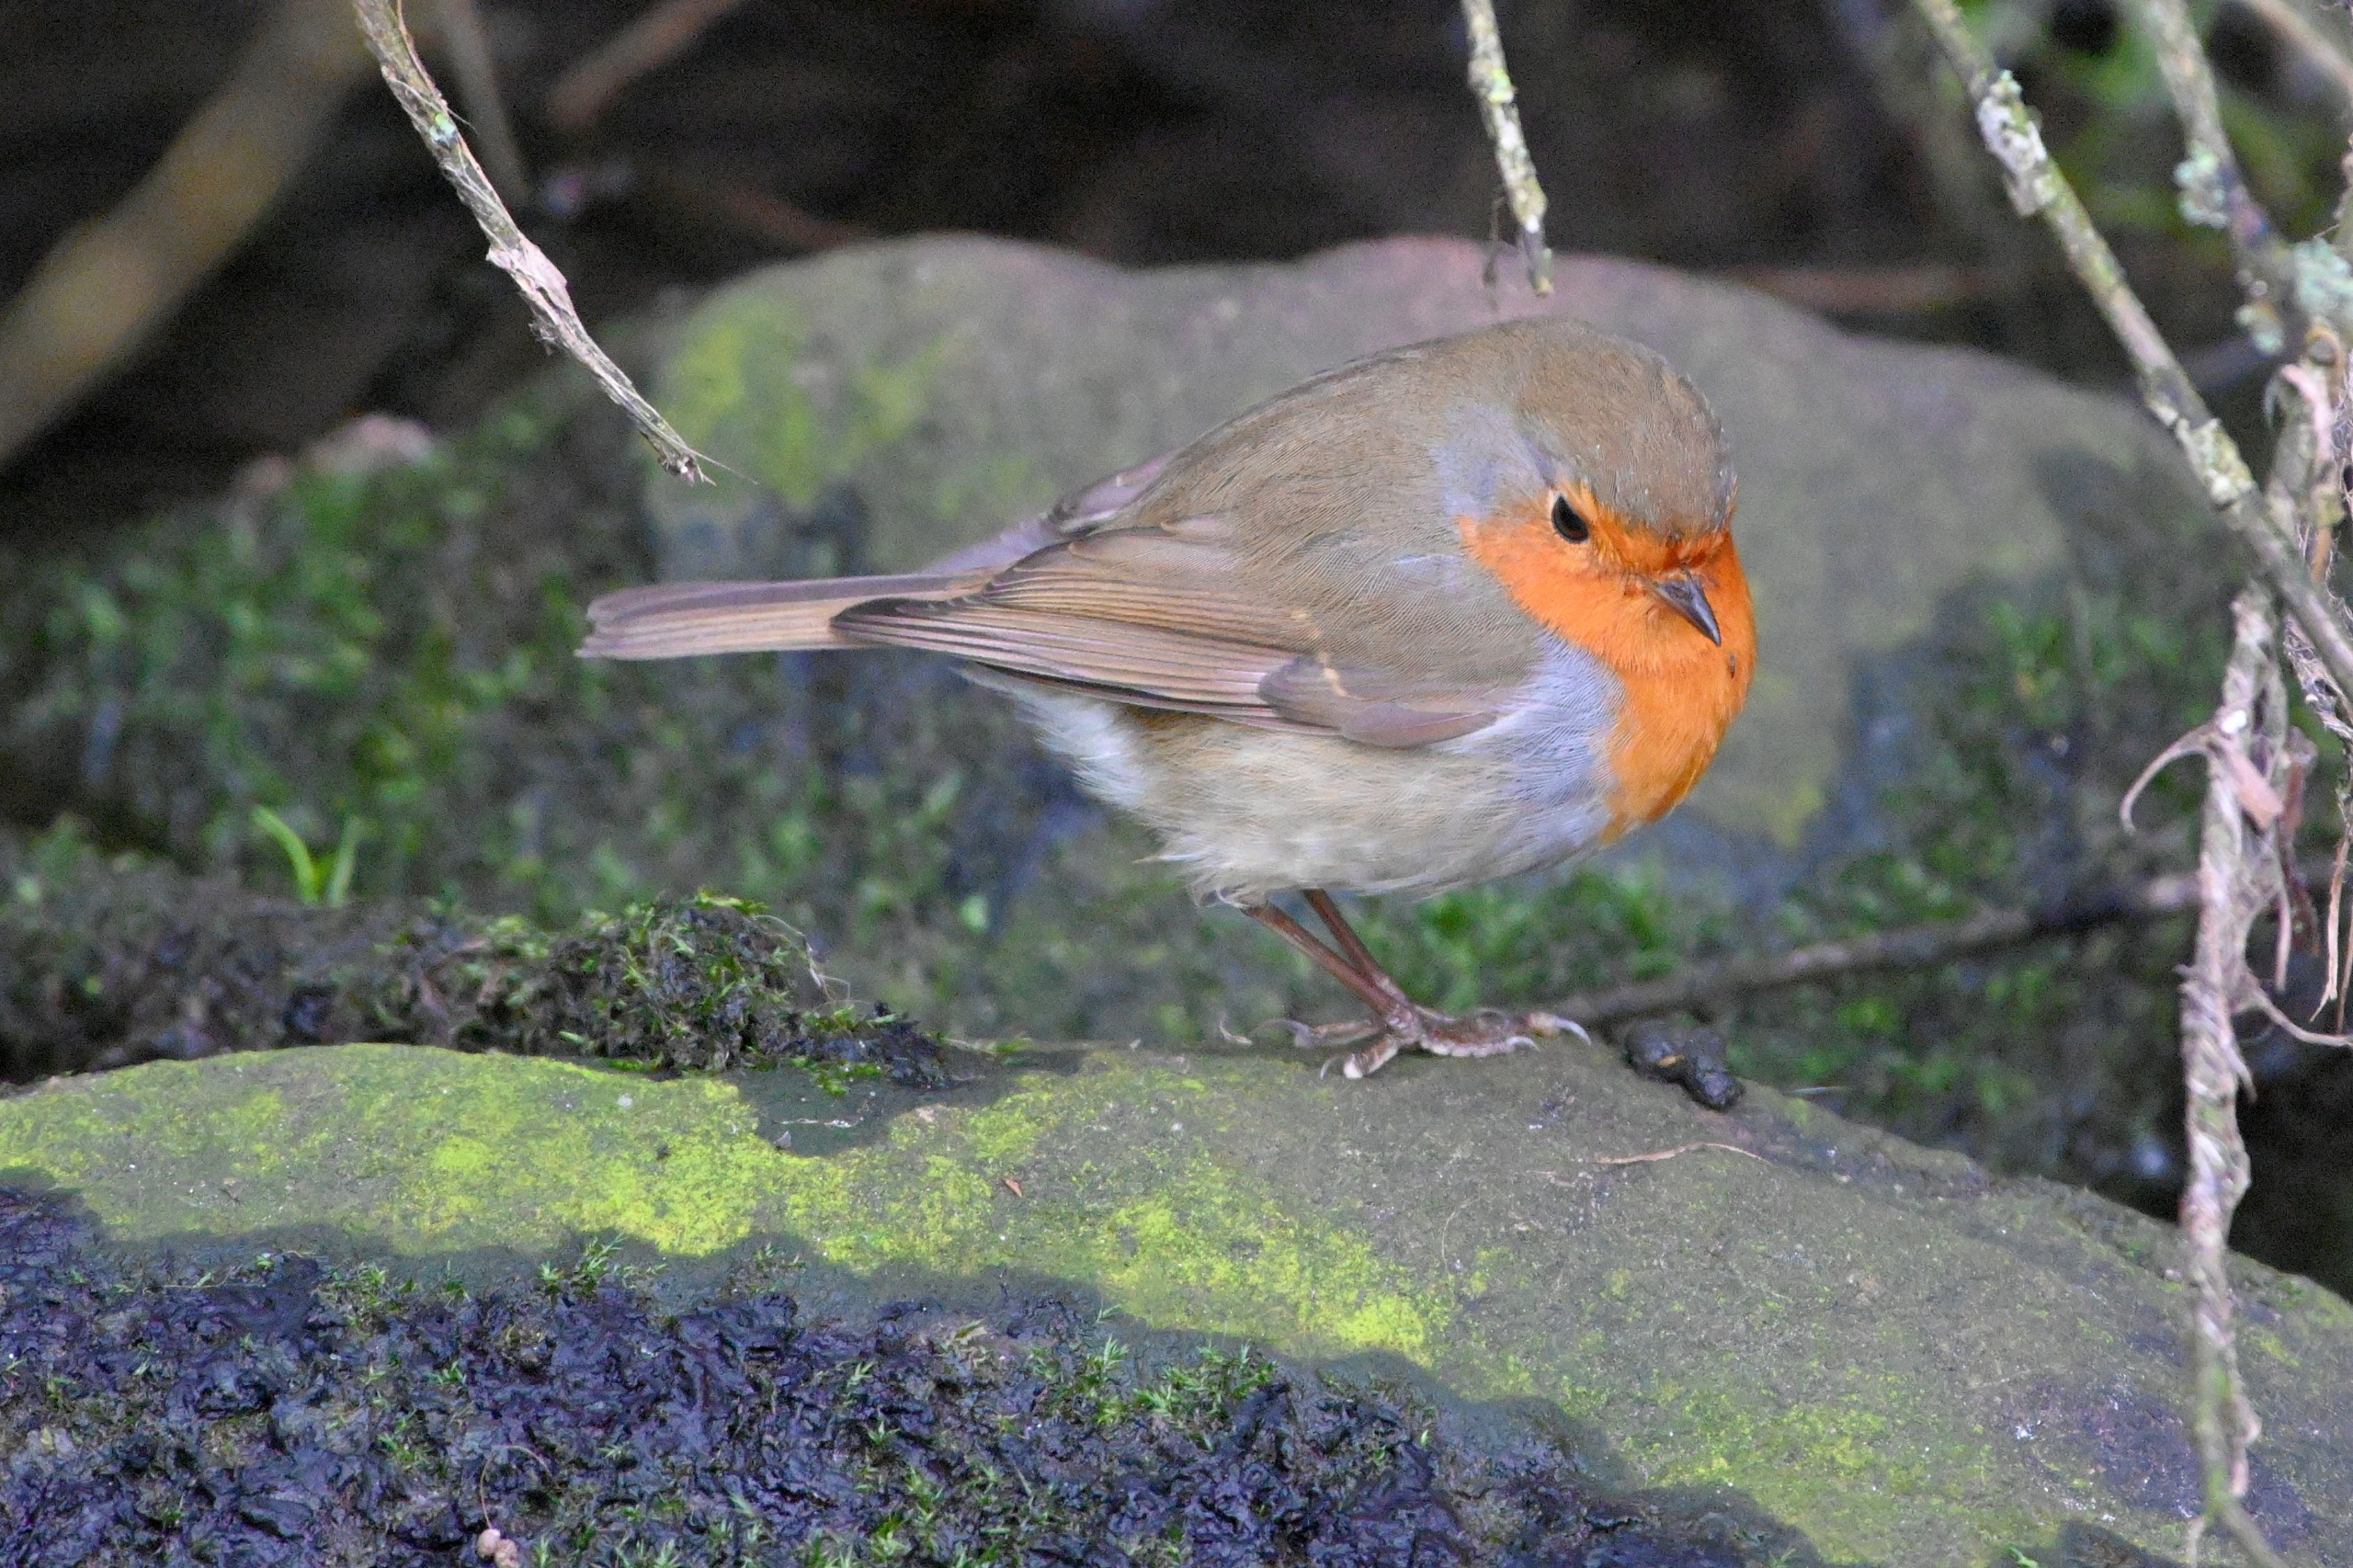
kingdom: Animalia
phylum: Chordata
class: Aves
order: Passeriformes
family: Muscicapidae
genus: Erithacus
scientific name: Erithacus rubecula
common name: Rødhals/rødkælk
